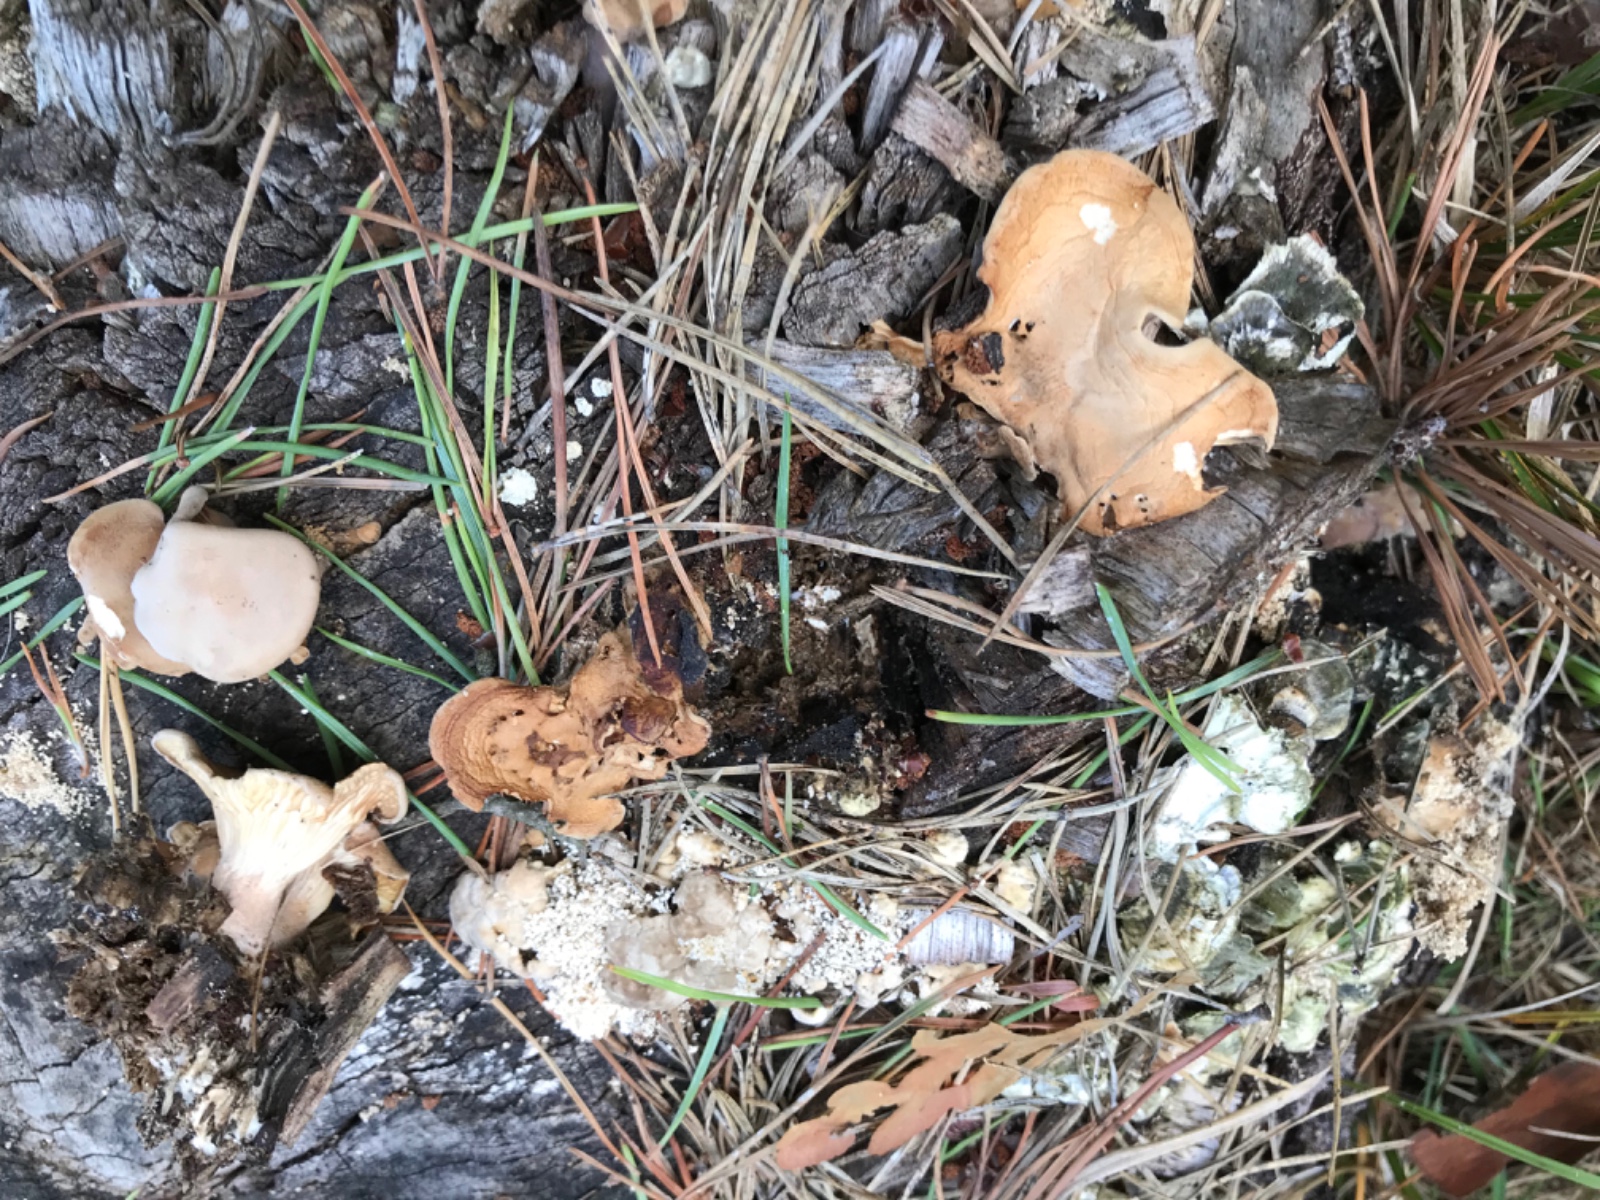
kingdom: Fungi
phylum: Basidiomycota
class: Agaricomycetes
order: Polyporales
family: Panaceae
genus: Panus
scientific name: Panus conchatus
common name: filtstokket læderhat
